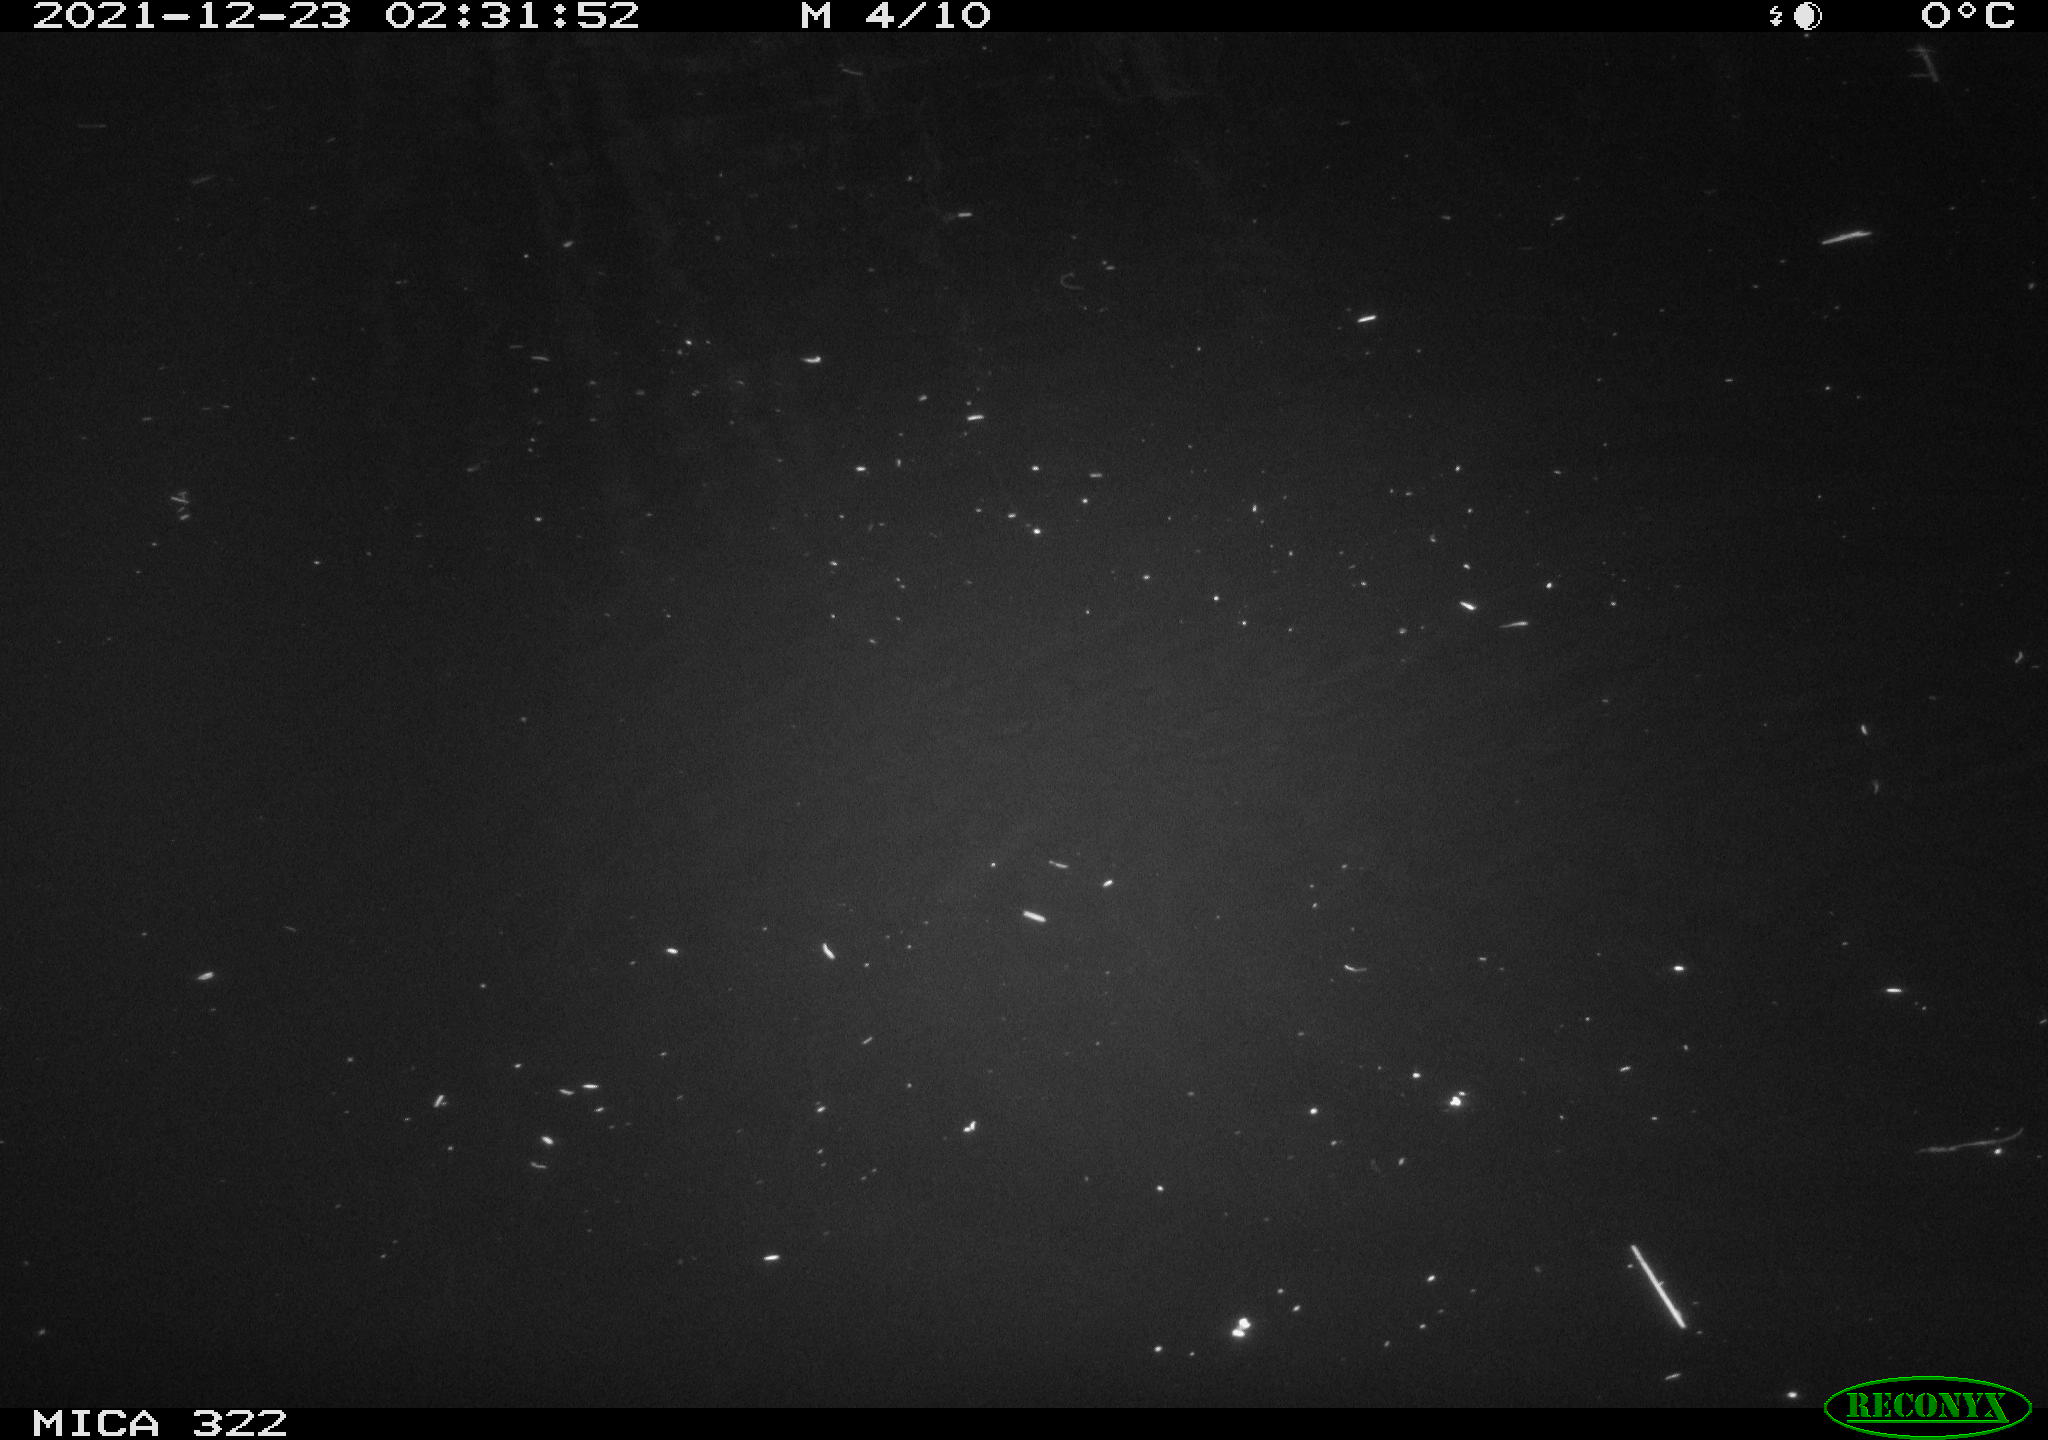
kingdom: Animalia
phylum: Chordata
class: Mammalia
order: Rodentia
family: Cricetidae
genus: Ondatra
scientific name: Ondatra zibethicus
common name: Muskrat
